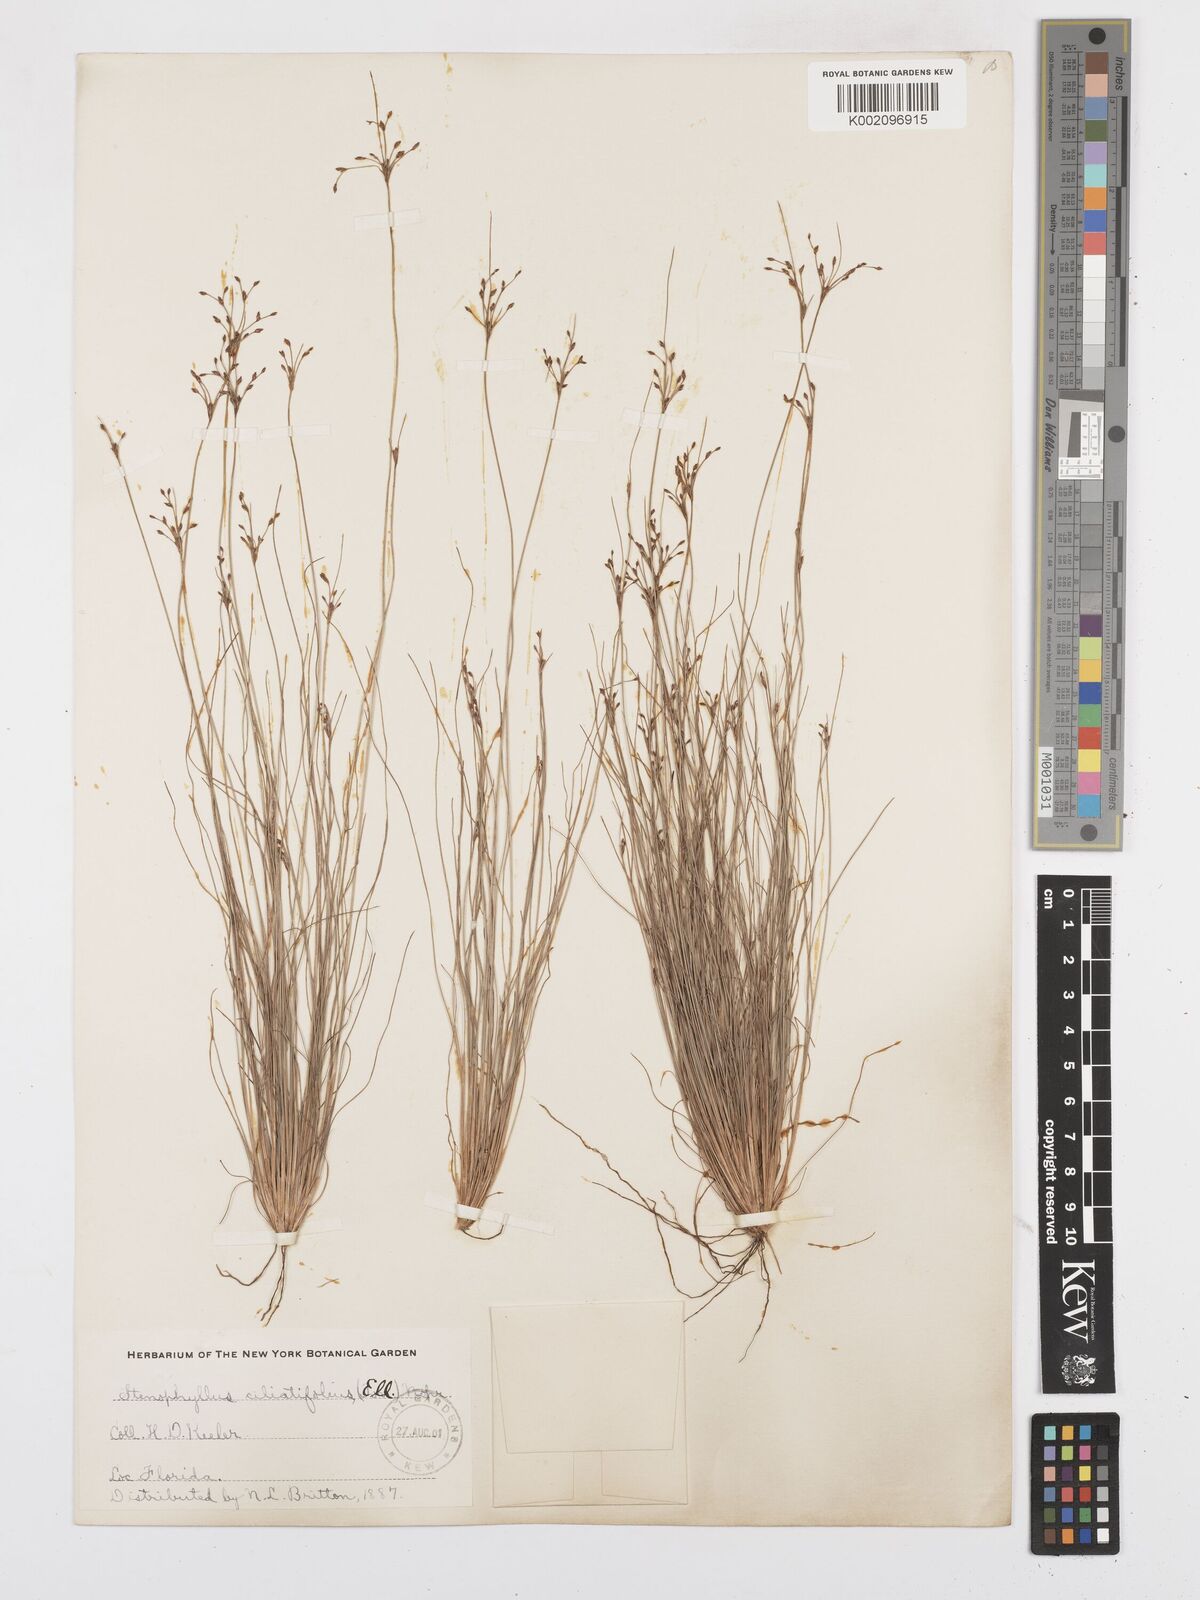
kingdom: Plantae
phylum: Tracheophyta
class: Liliopsida
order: Poales
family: Cyperaceae
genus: Bulbostylis
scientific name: Bulbostylis ciliatifolia
